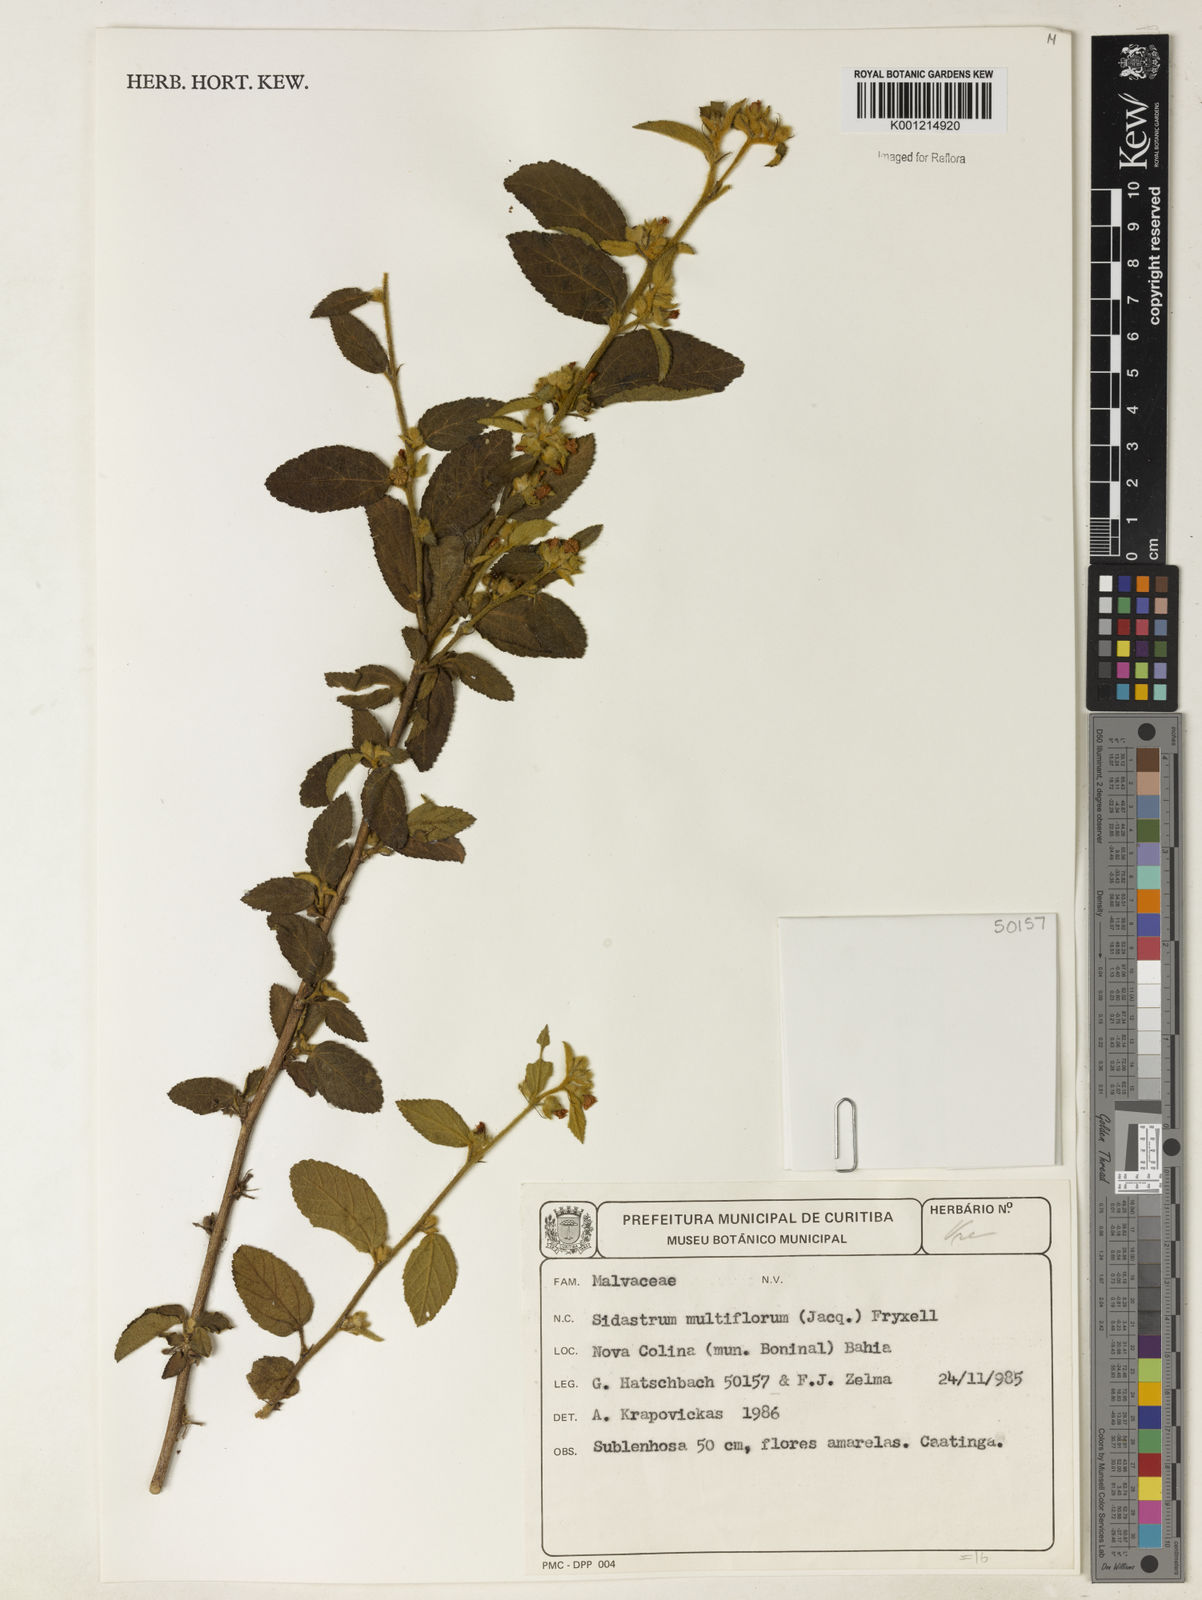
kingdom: Plantae
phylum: Tracheophyta
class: Magnoliopsida
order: Malvales
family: Malvaceae
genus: Sidastrum
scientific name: Sidastrum multiflorum
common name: Manyflower sandmallow
